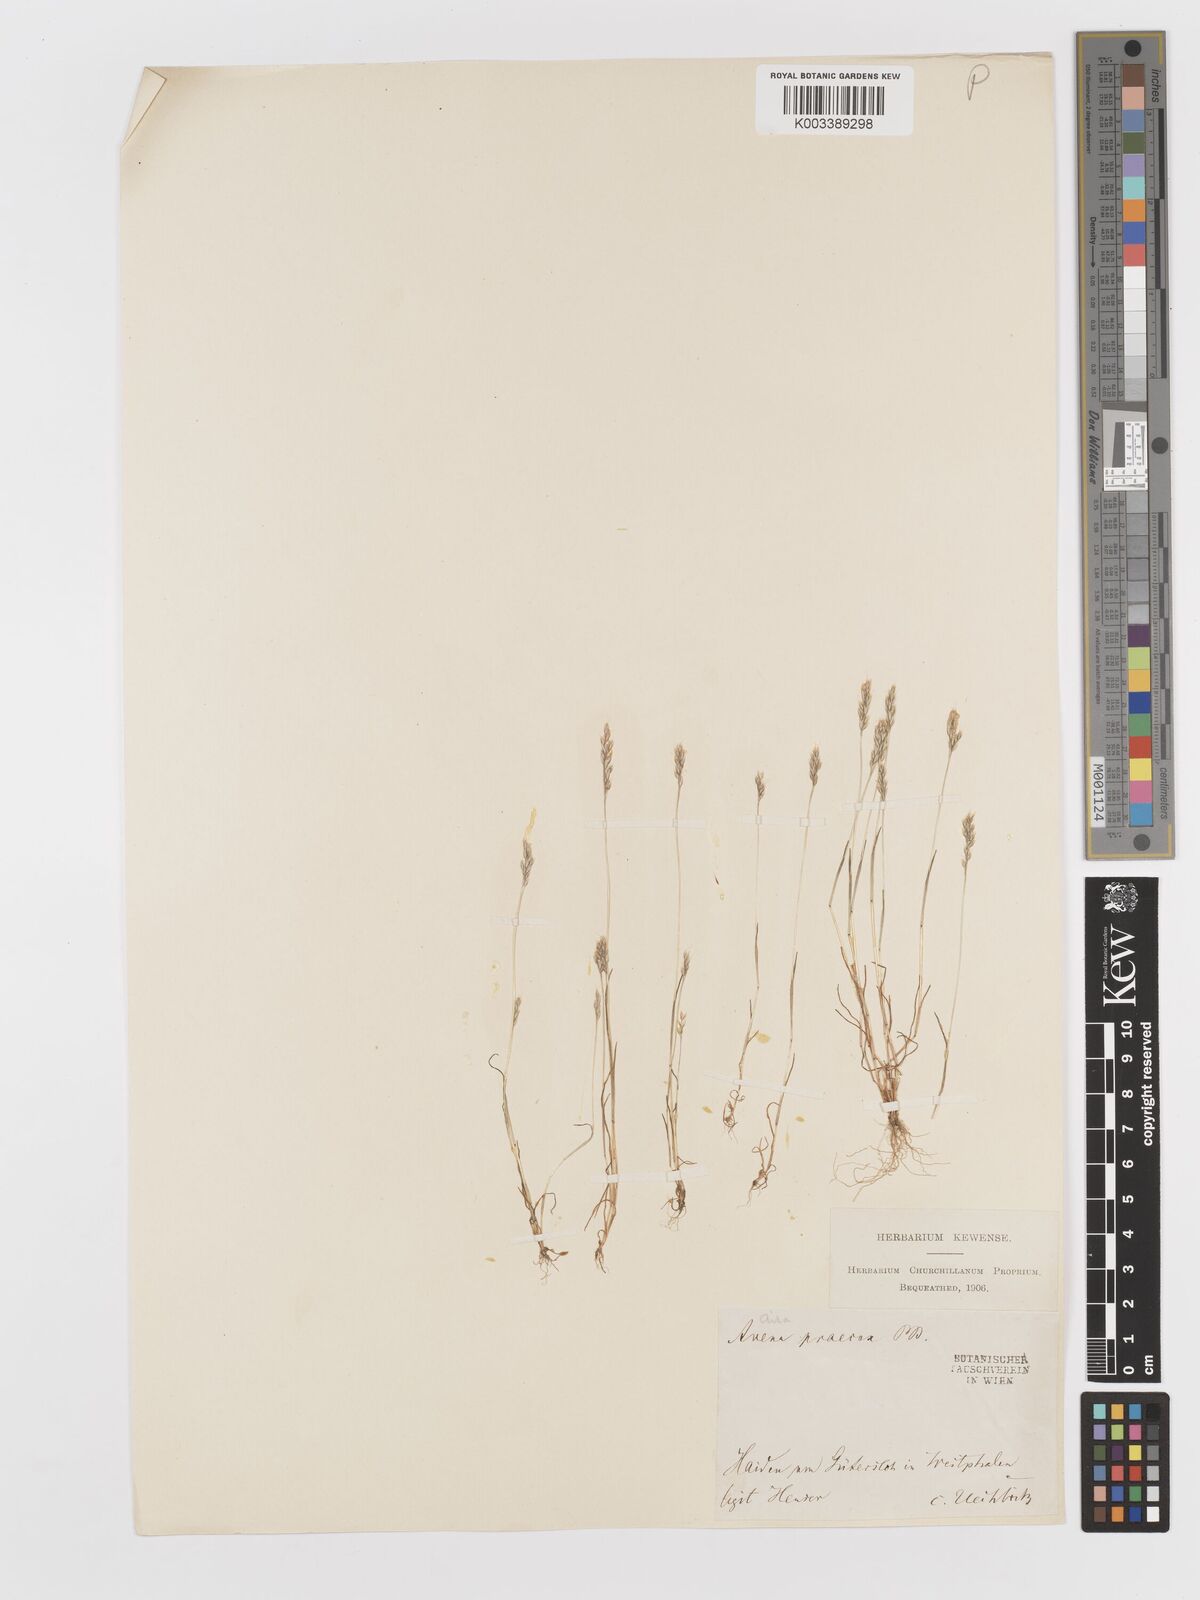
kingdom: Plantae
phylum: Tracheophyta
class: Liliopsida
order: Poales
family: Poaceae
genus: Aira
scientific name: Aira praecox
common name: Early hair-grass
